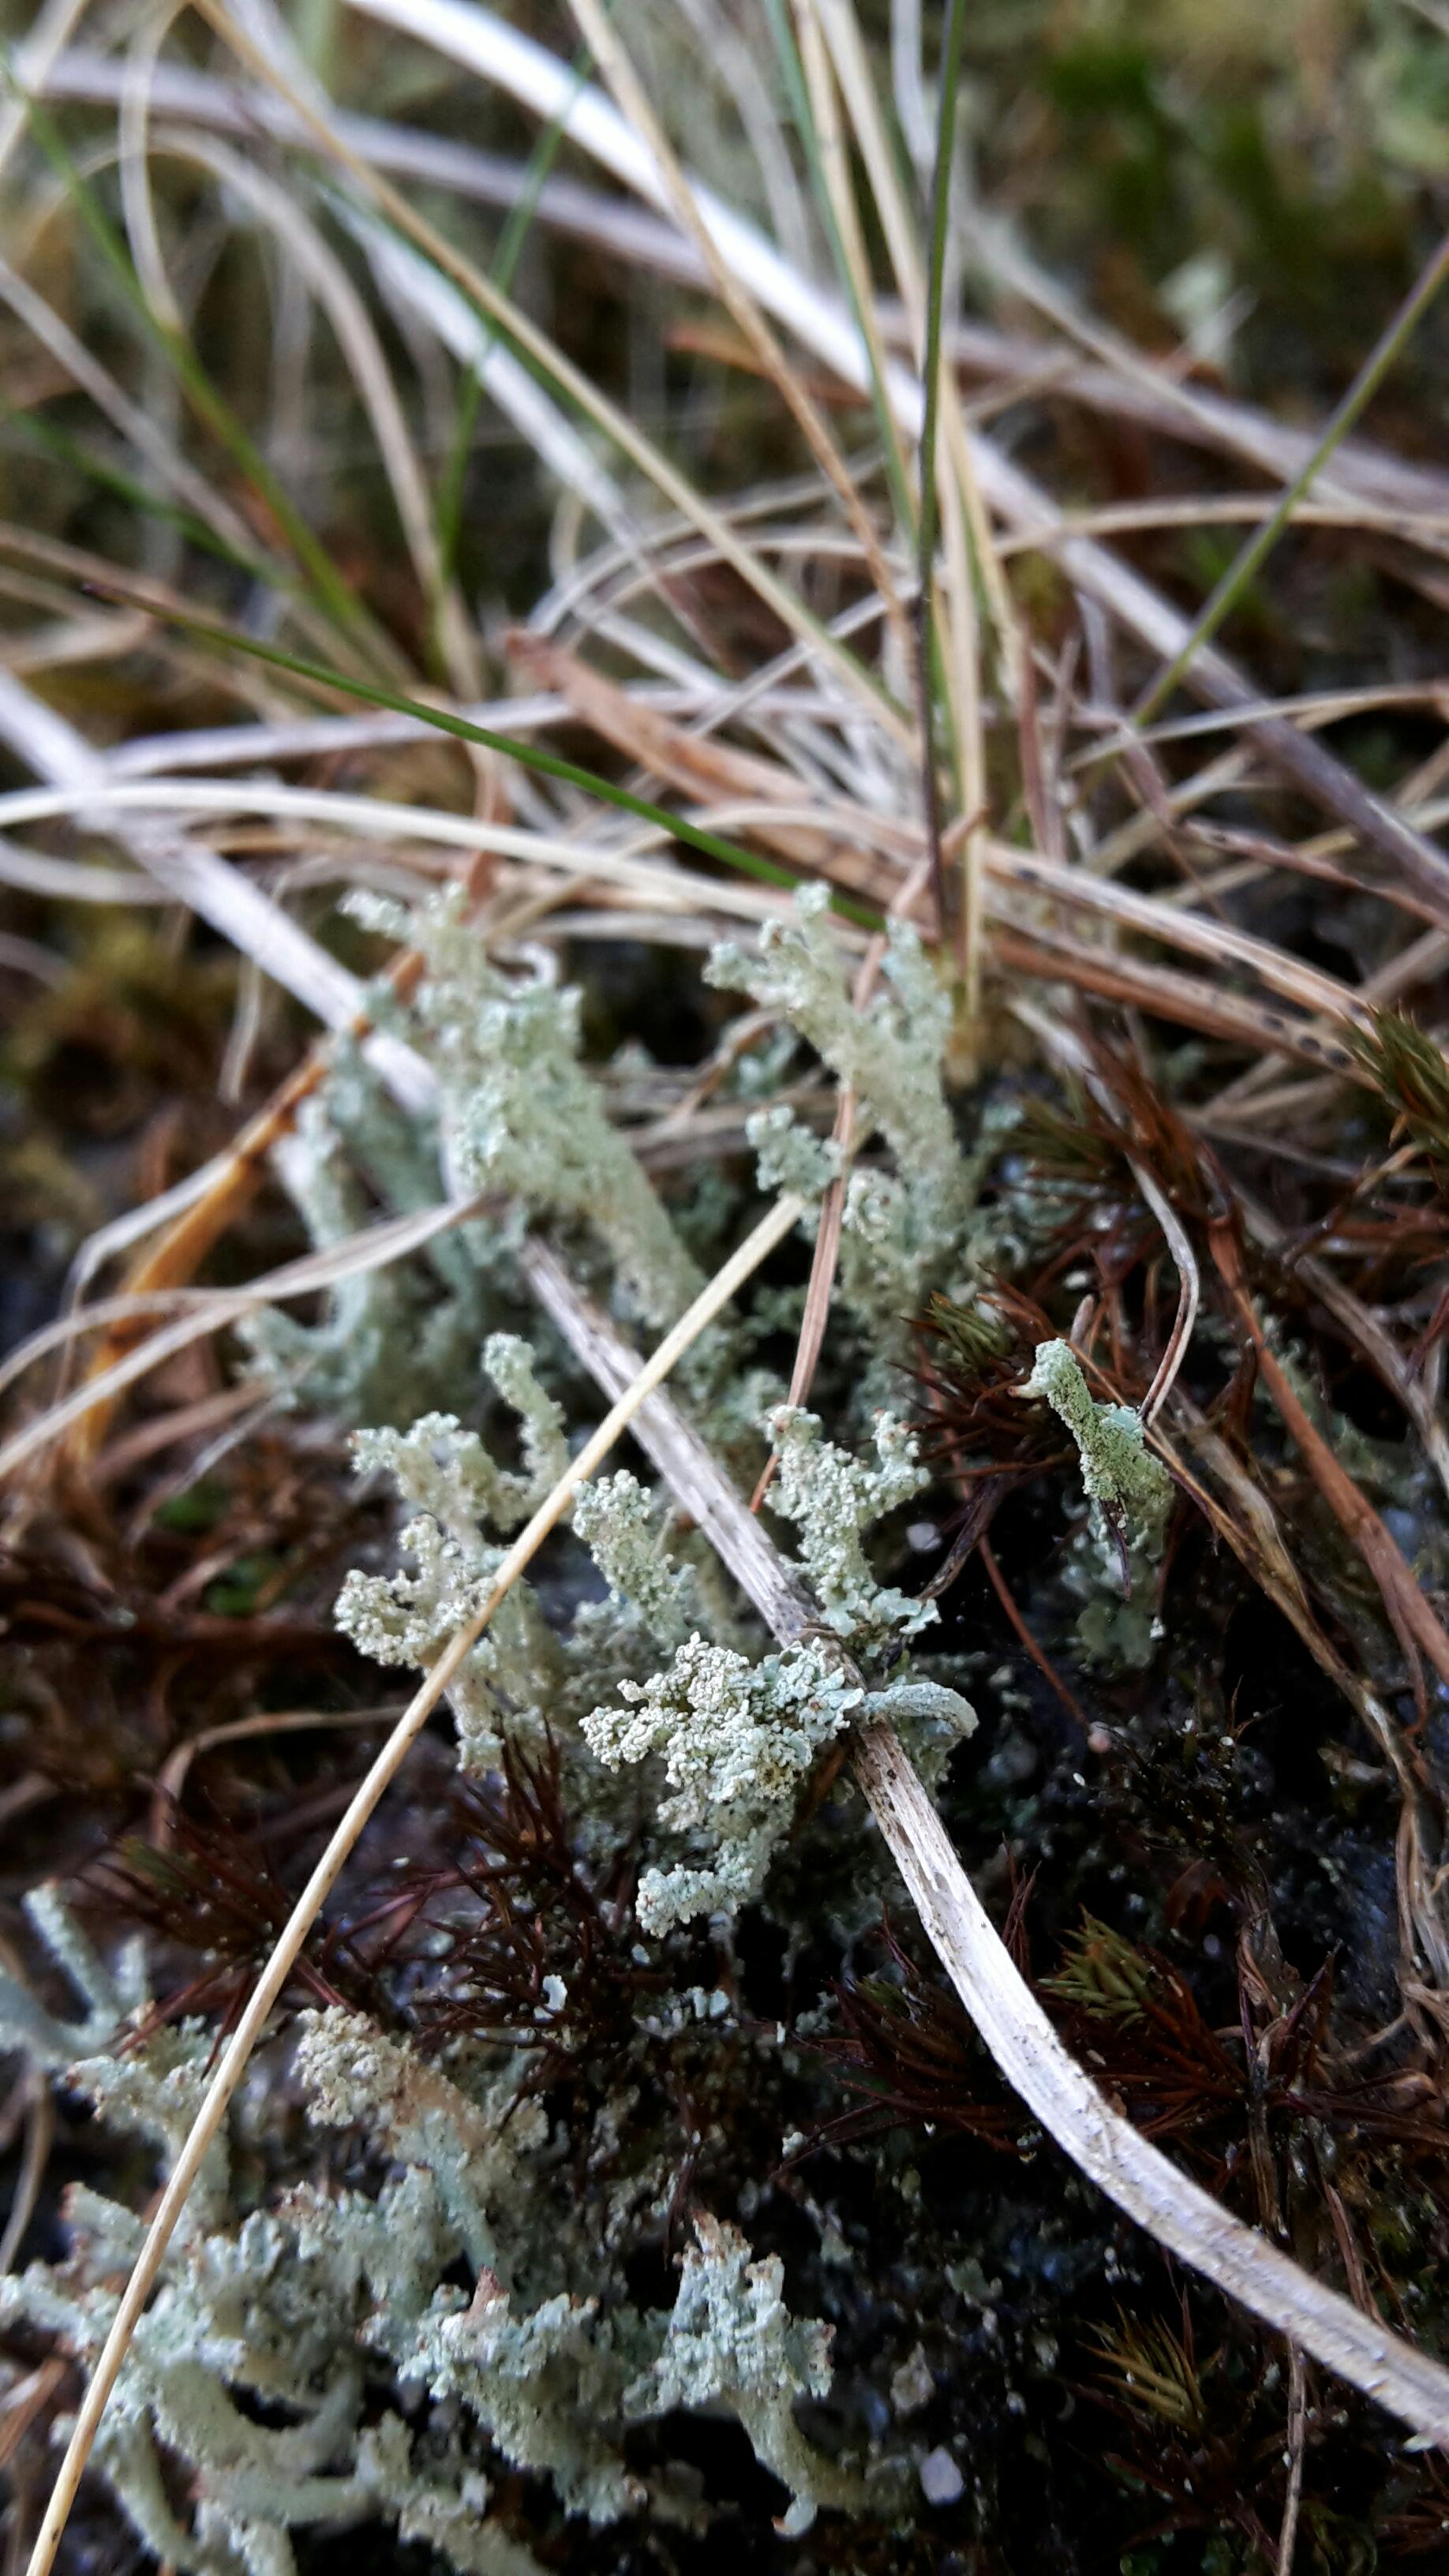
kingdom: Fungi
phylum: Ascomycota
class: Lecanoromycetes
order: Lecanorales
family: Cladoniaceae
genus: Cladonia
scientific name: Cladonia
